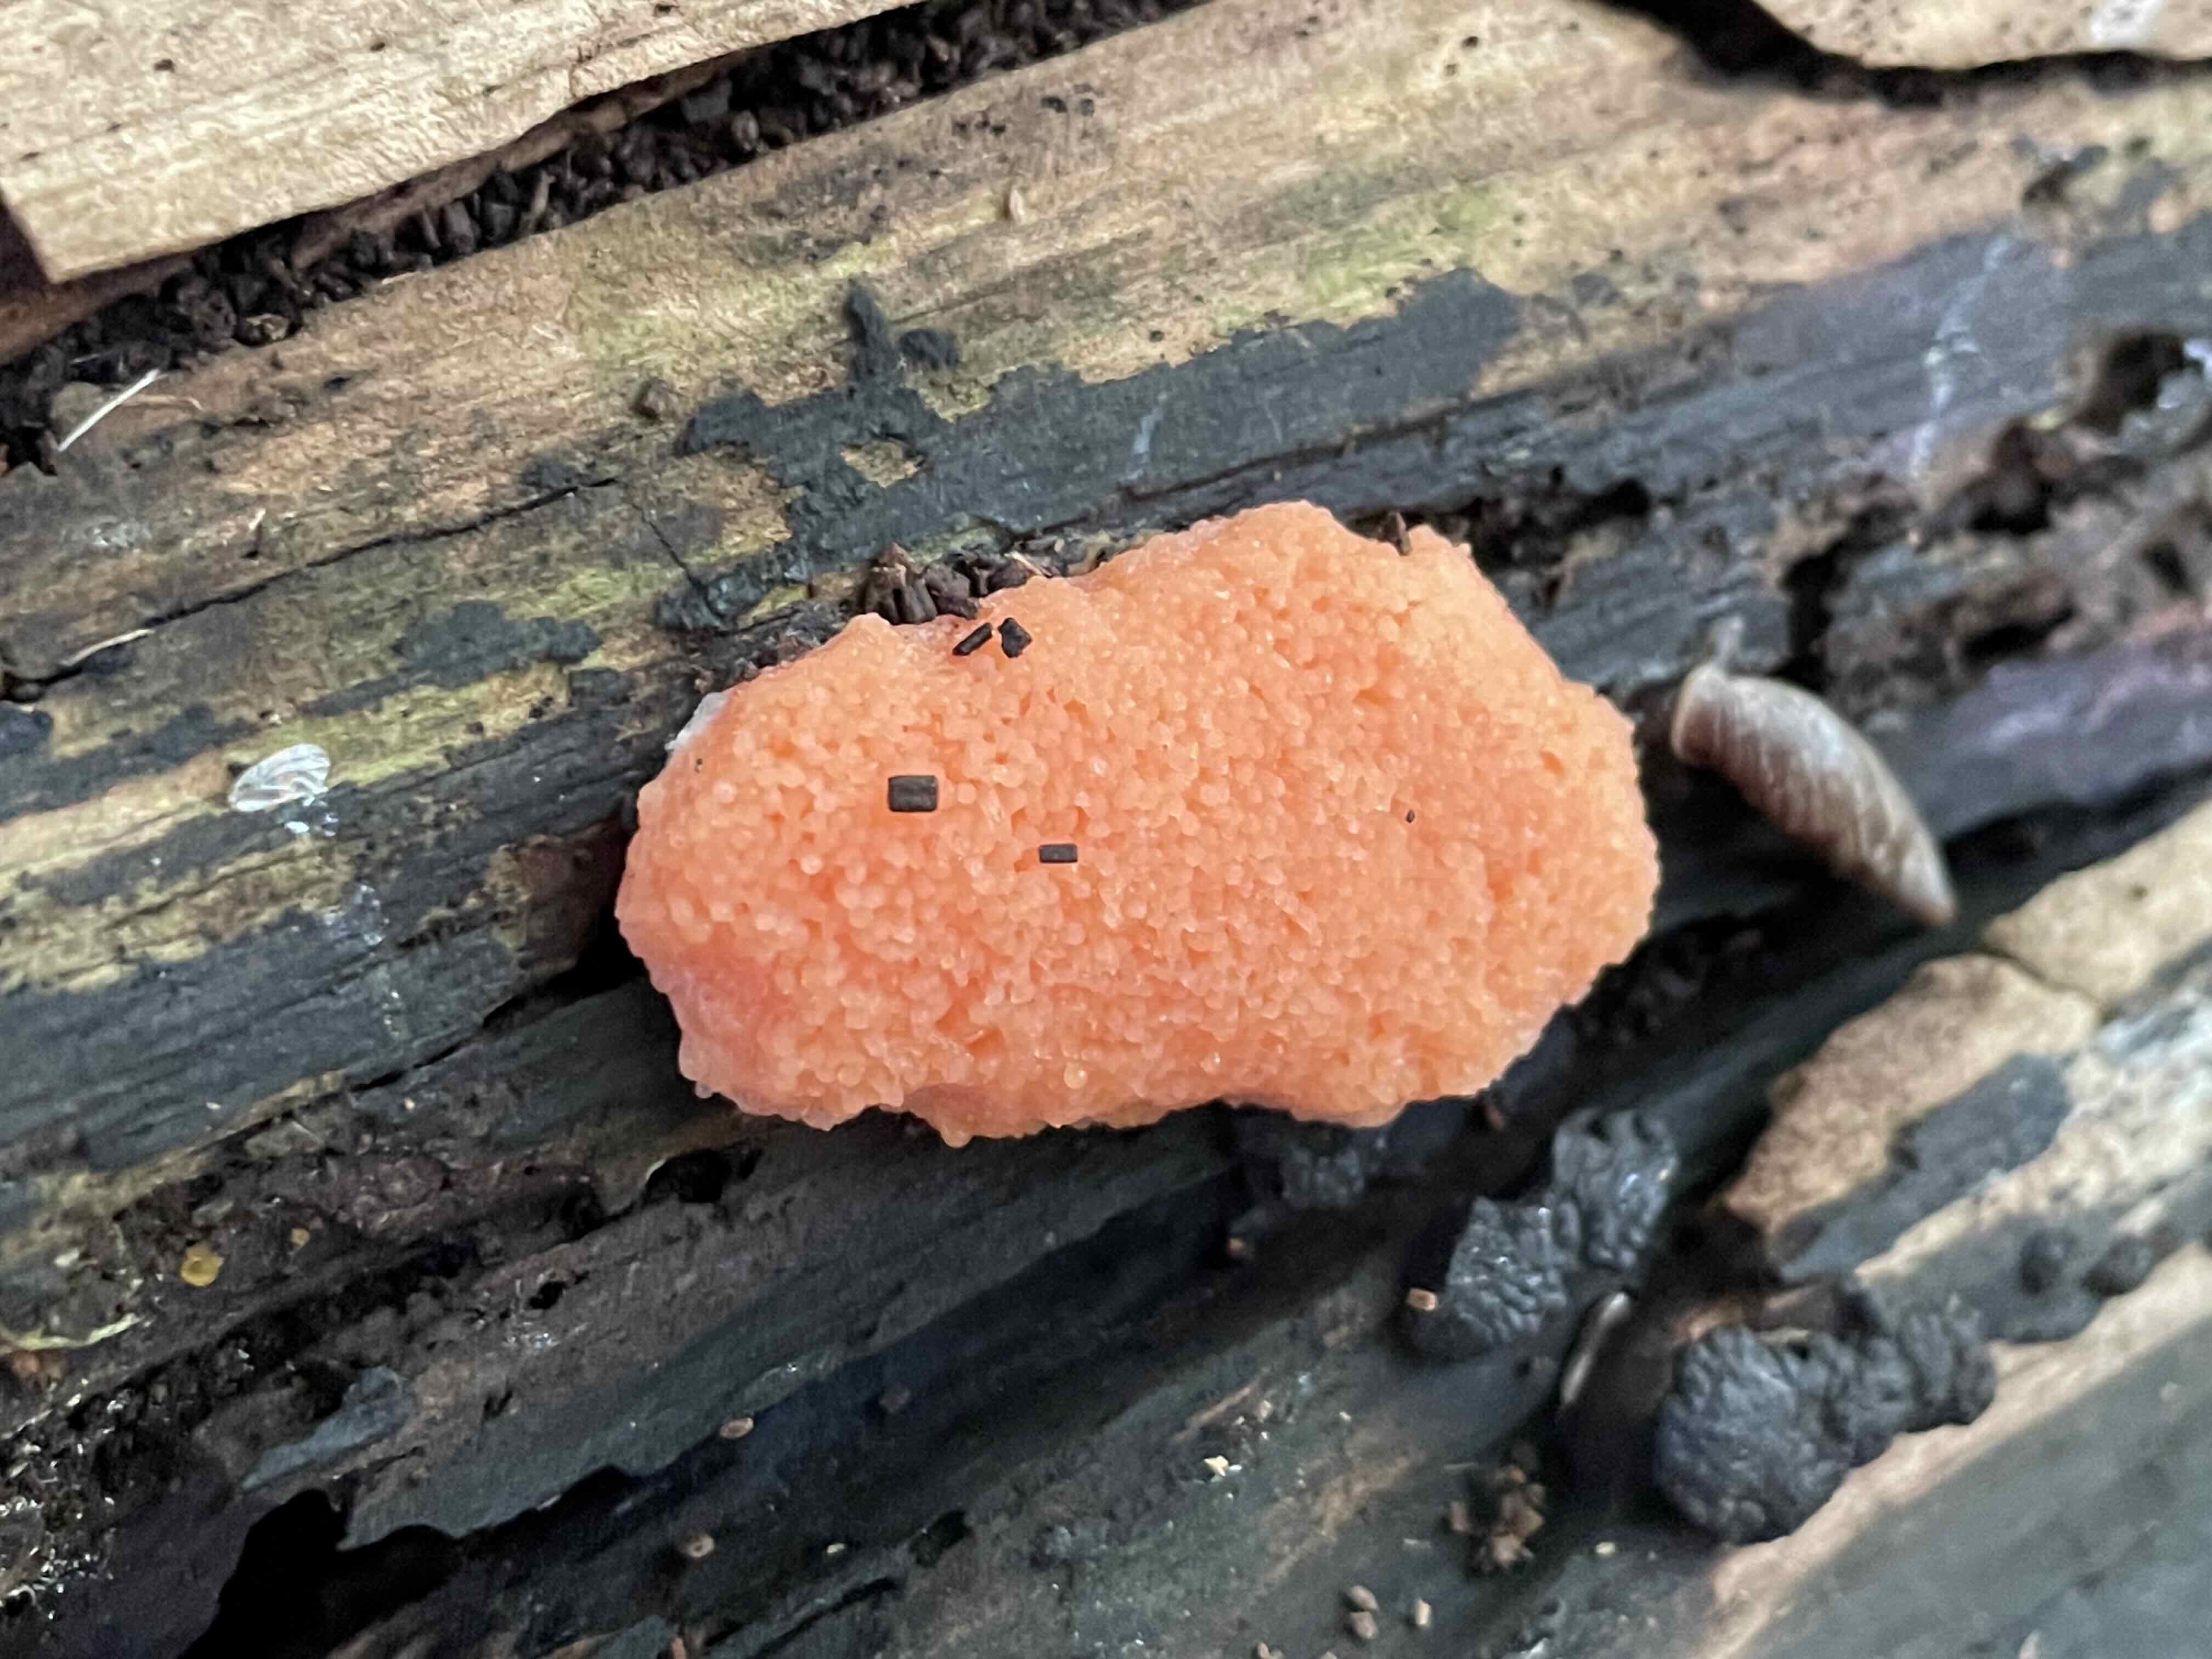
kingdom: Protozoa
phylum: Mycetozoa
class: Myxomycetes
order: Cribrariales
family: Tubiferaceae
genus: Tubifera
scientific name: Tubifera ferruginosa
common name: kanel-støvrør
